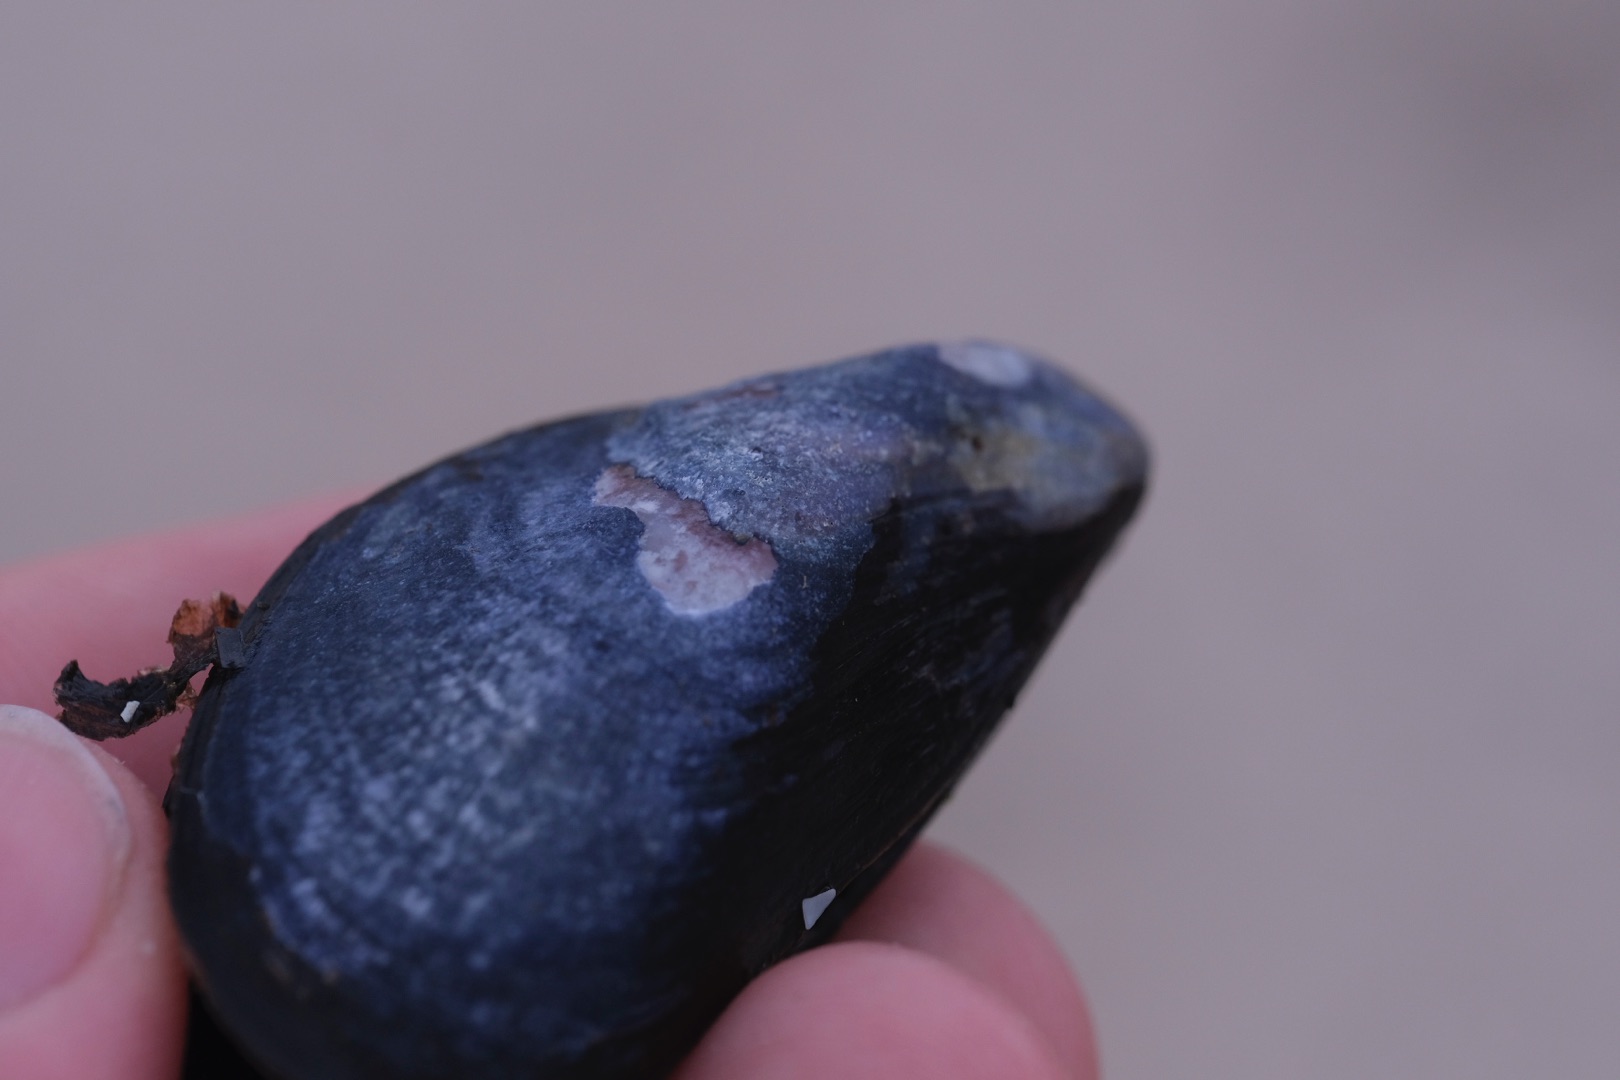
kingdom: Animalia
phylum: Mollusca
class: Bivalvia
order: Mytilida
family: Mytilidae
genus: Mytilus
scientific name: Mytilus edulis
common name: Blåmusling
